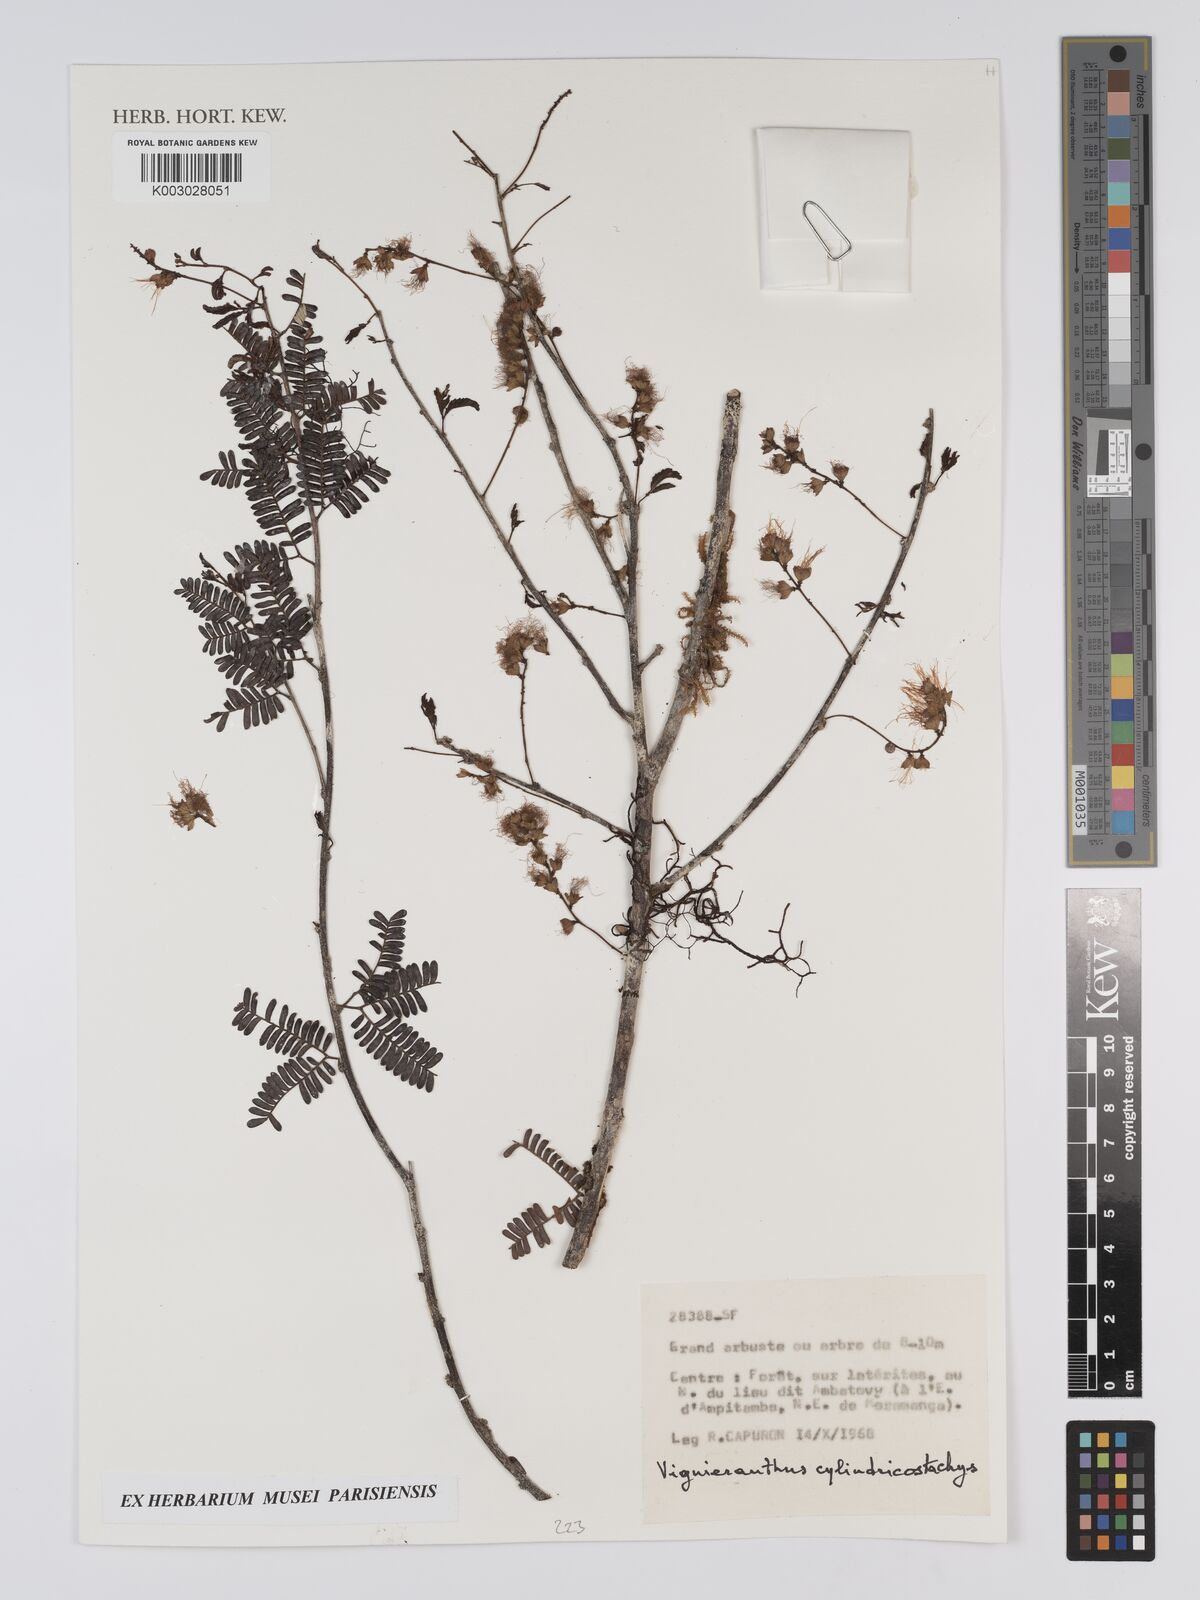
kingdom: Plantae
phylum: Tracheophyta
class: Magnoliopsida
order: Fabales
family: Fabaceae
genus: Viguieranthus
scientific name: Viguieranthus cylindricostachys
